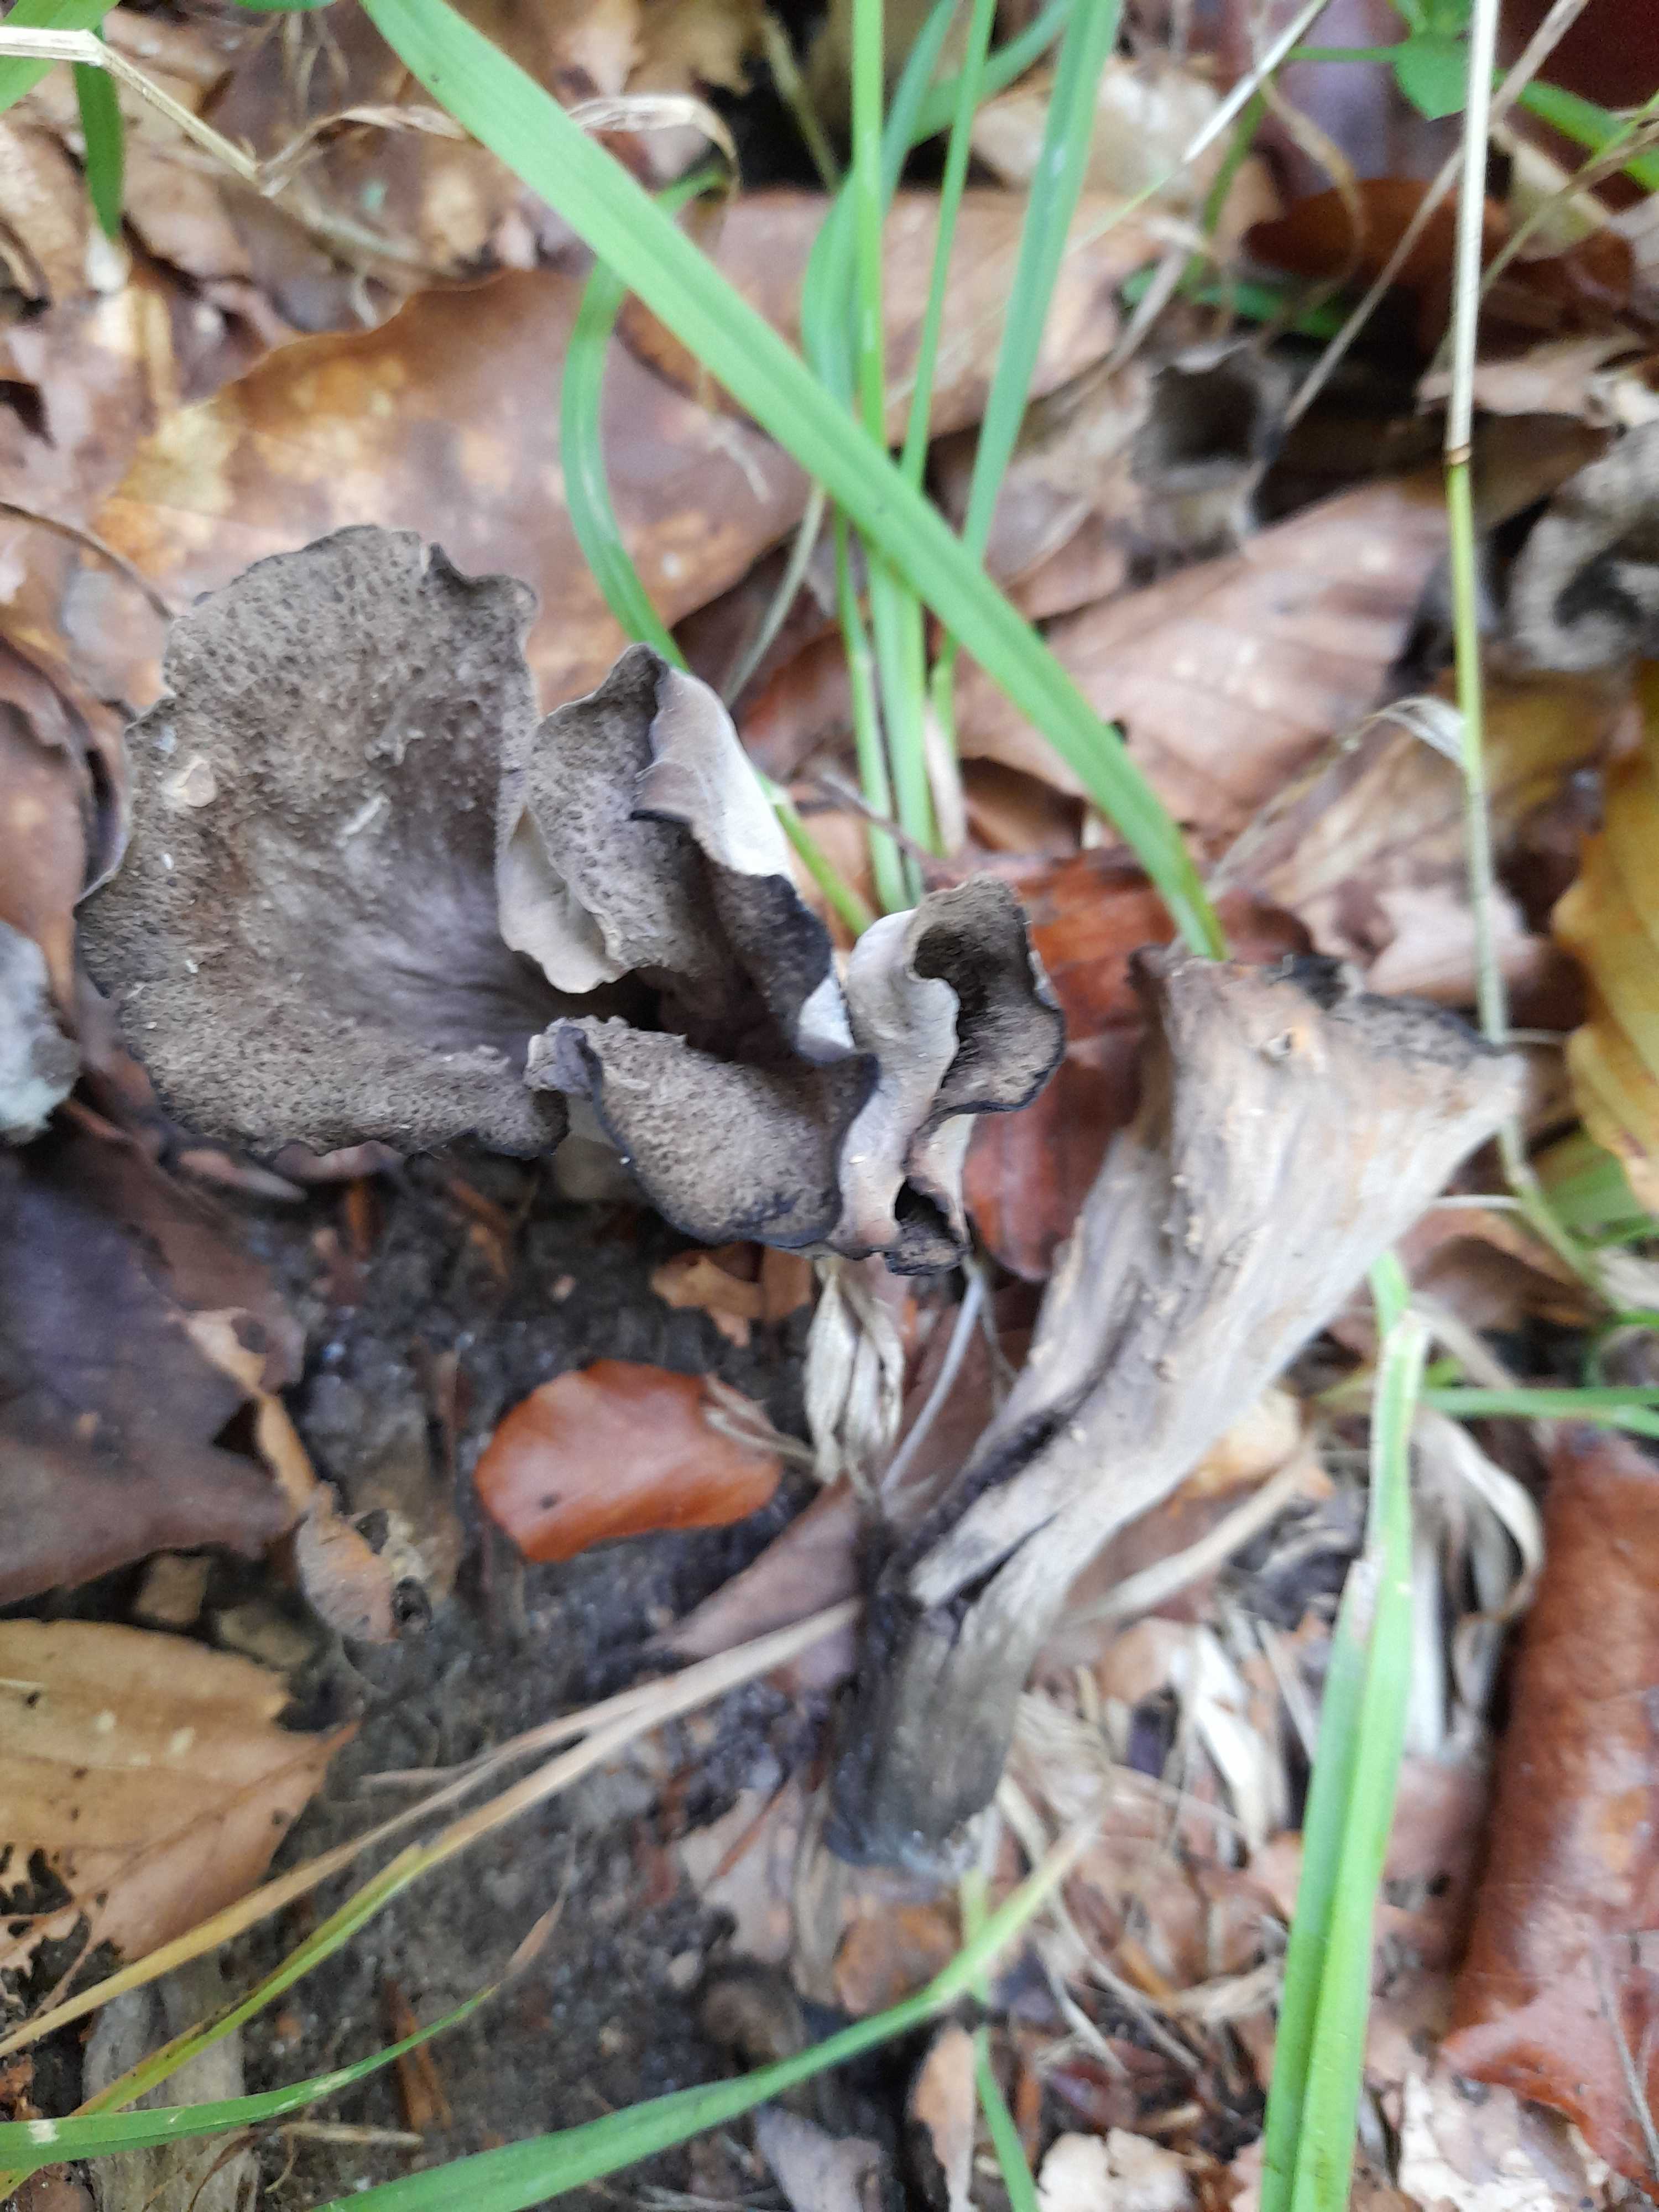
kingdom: Fungi
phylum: Basidiomycota
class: Agaricomycetes
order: Cantharellales
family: Hydnaceae
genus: Craterellus
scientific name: Craterellus cornucopioides
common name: trompetsvamp
